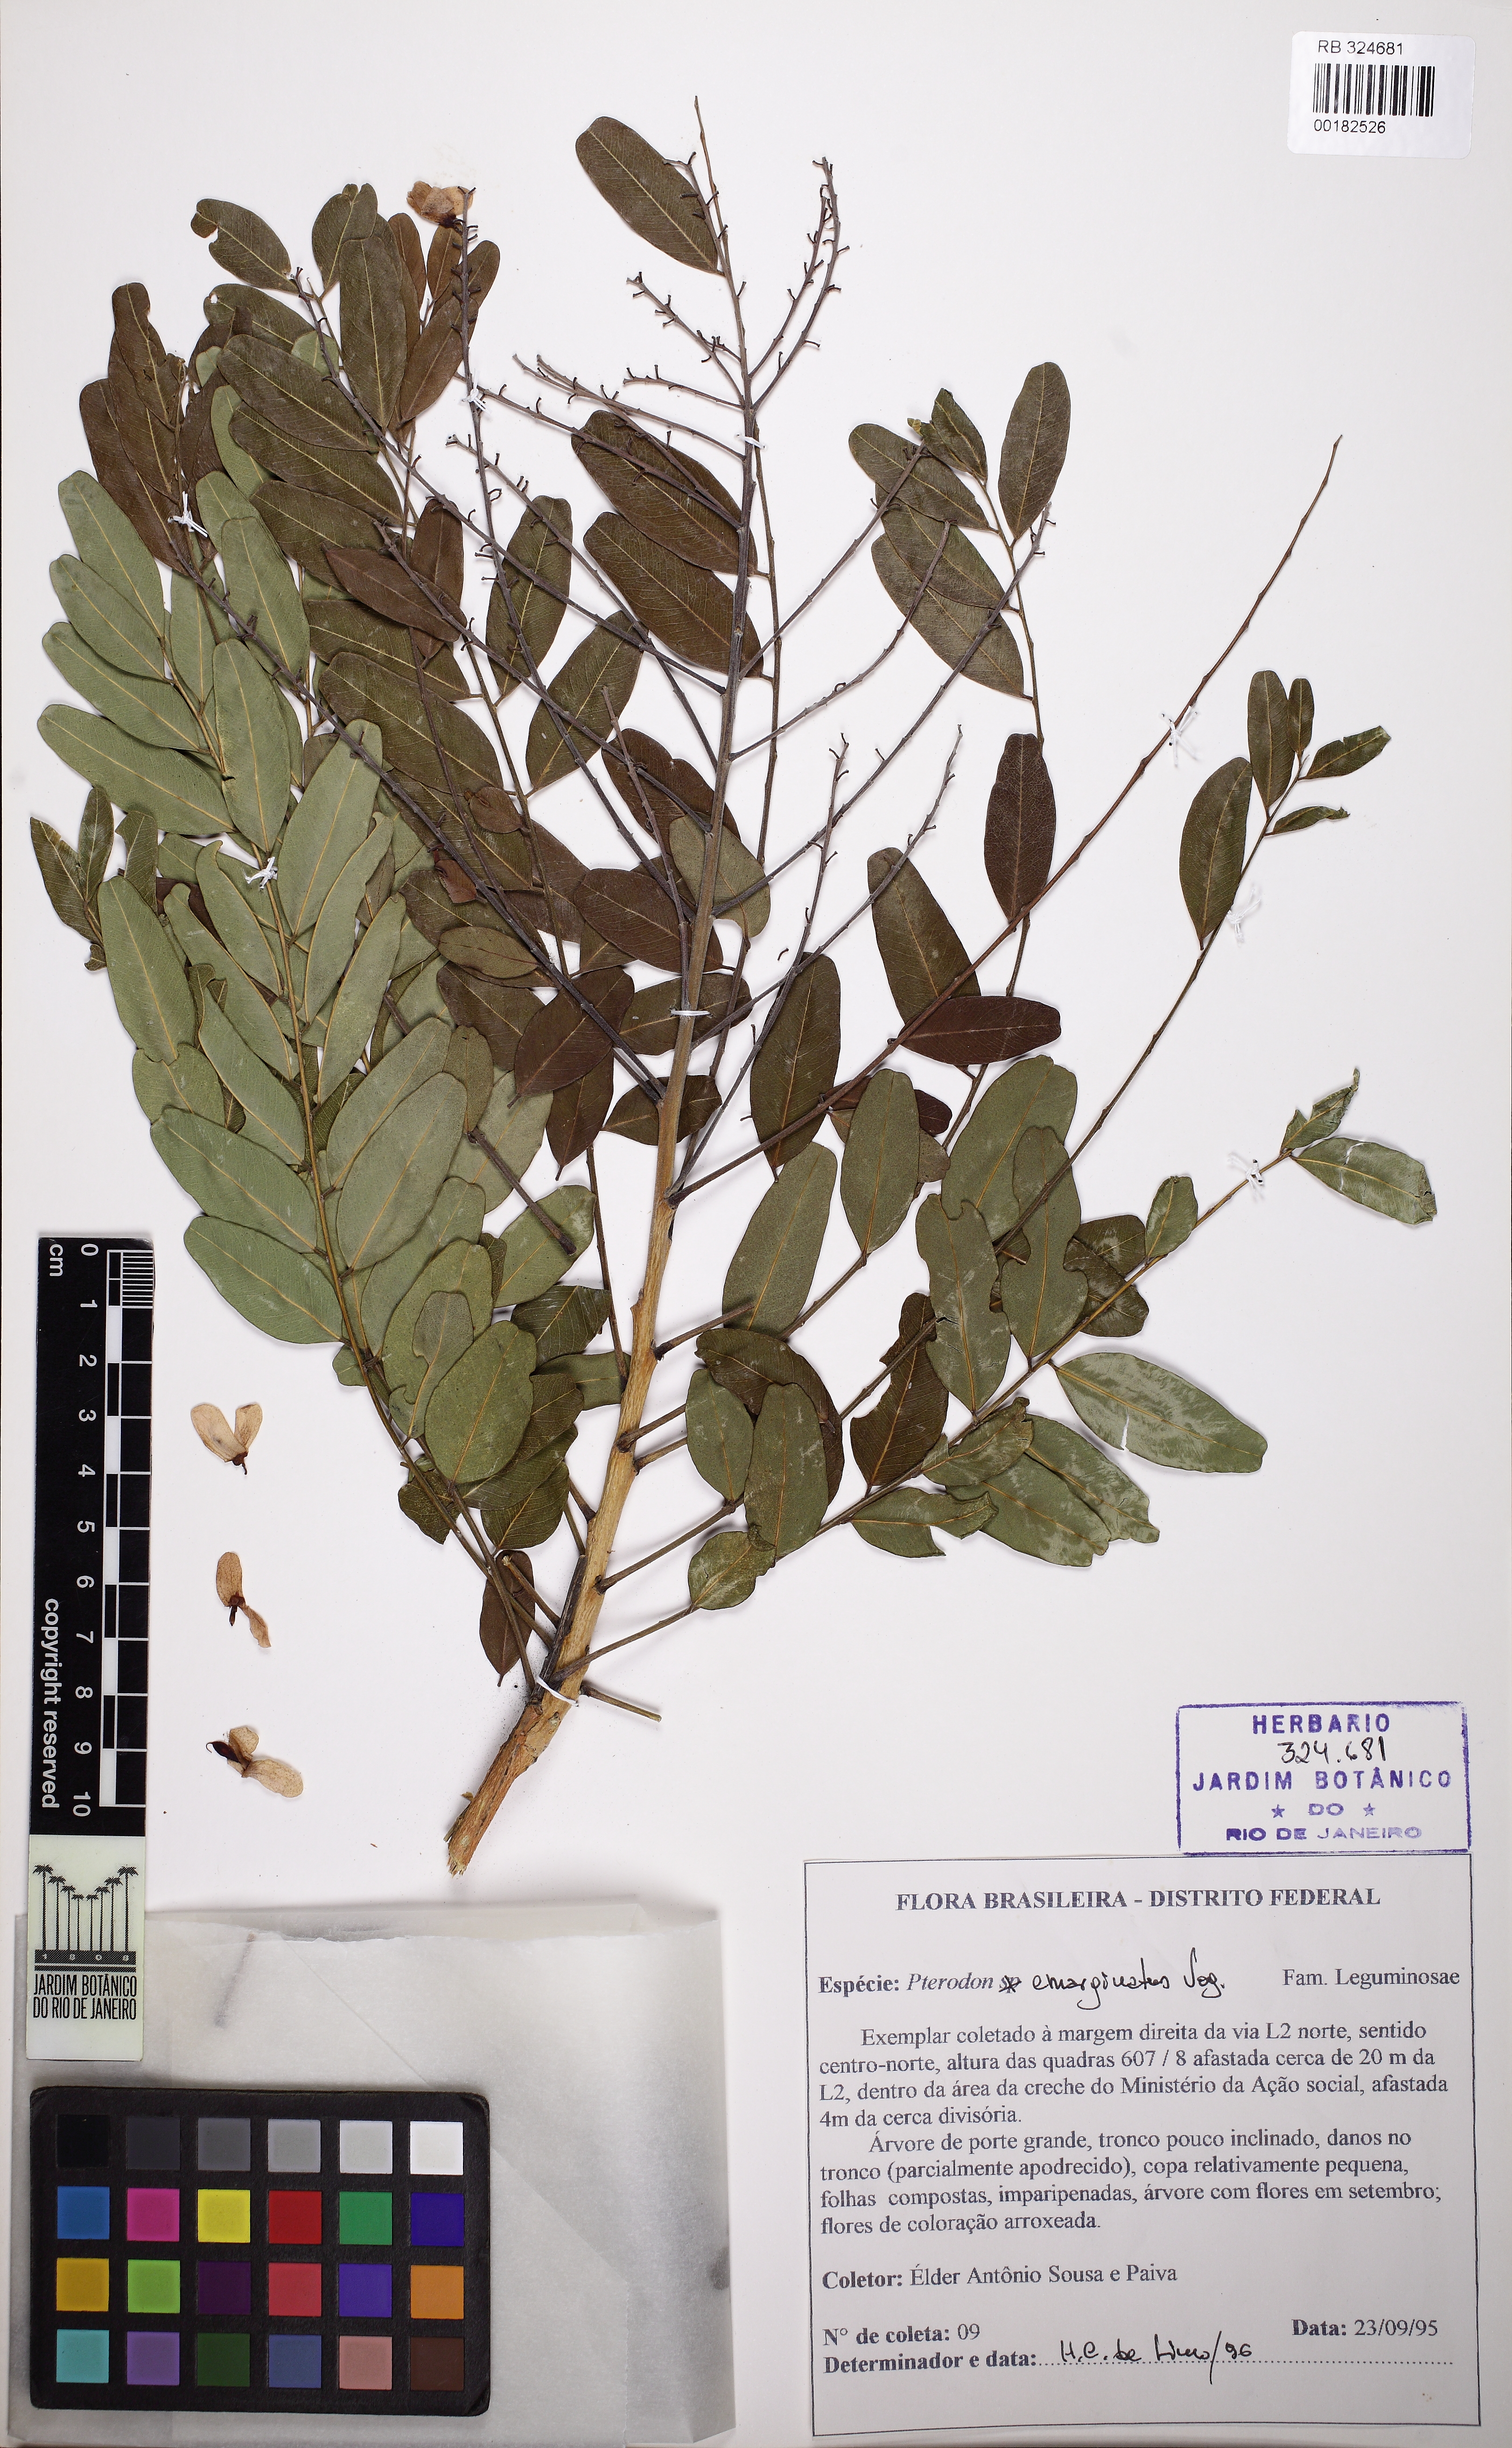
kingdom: Plantae
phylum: Tracheophyta
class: Magnoliopsida
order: Fabales
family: Fabaceae
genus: Pterodon
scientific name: Pterodon emarginatus
